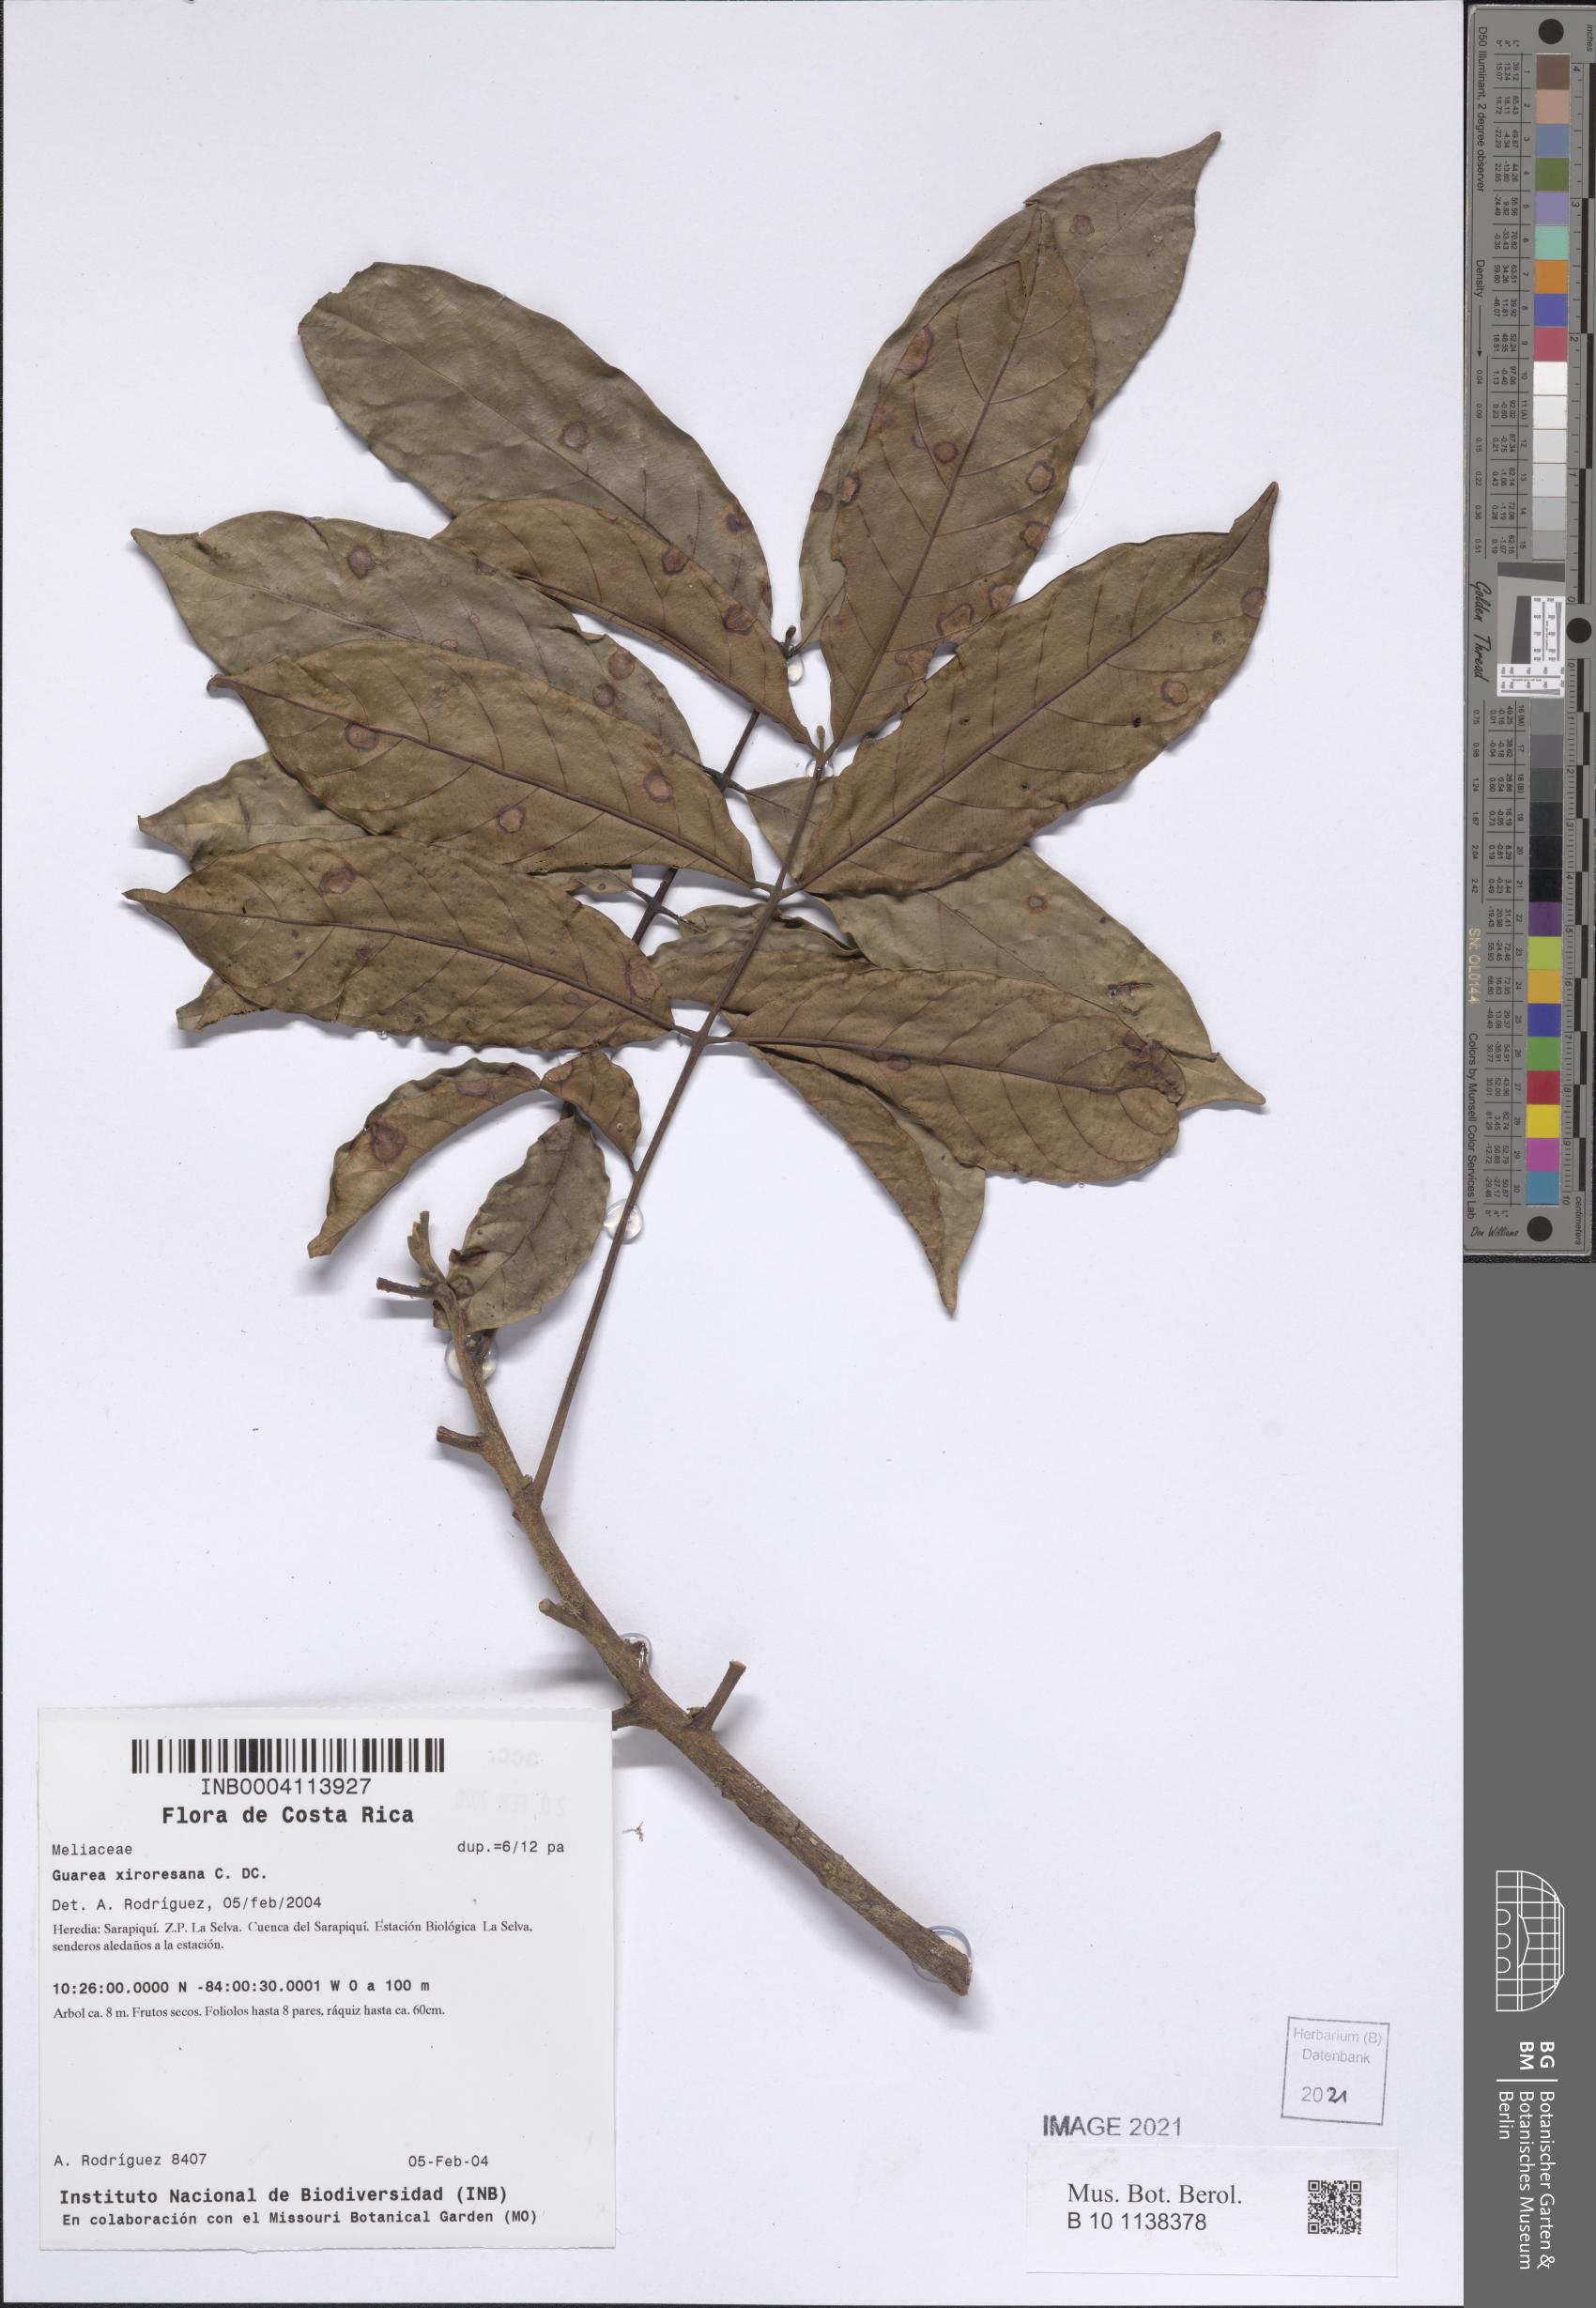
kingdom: Plantae
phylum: Tracheophyta
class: Magnoliopsida
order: Sapindales
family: Meliaceae
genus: Guarea
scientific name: Guarea guidonia
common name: American muskwood
